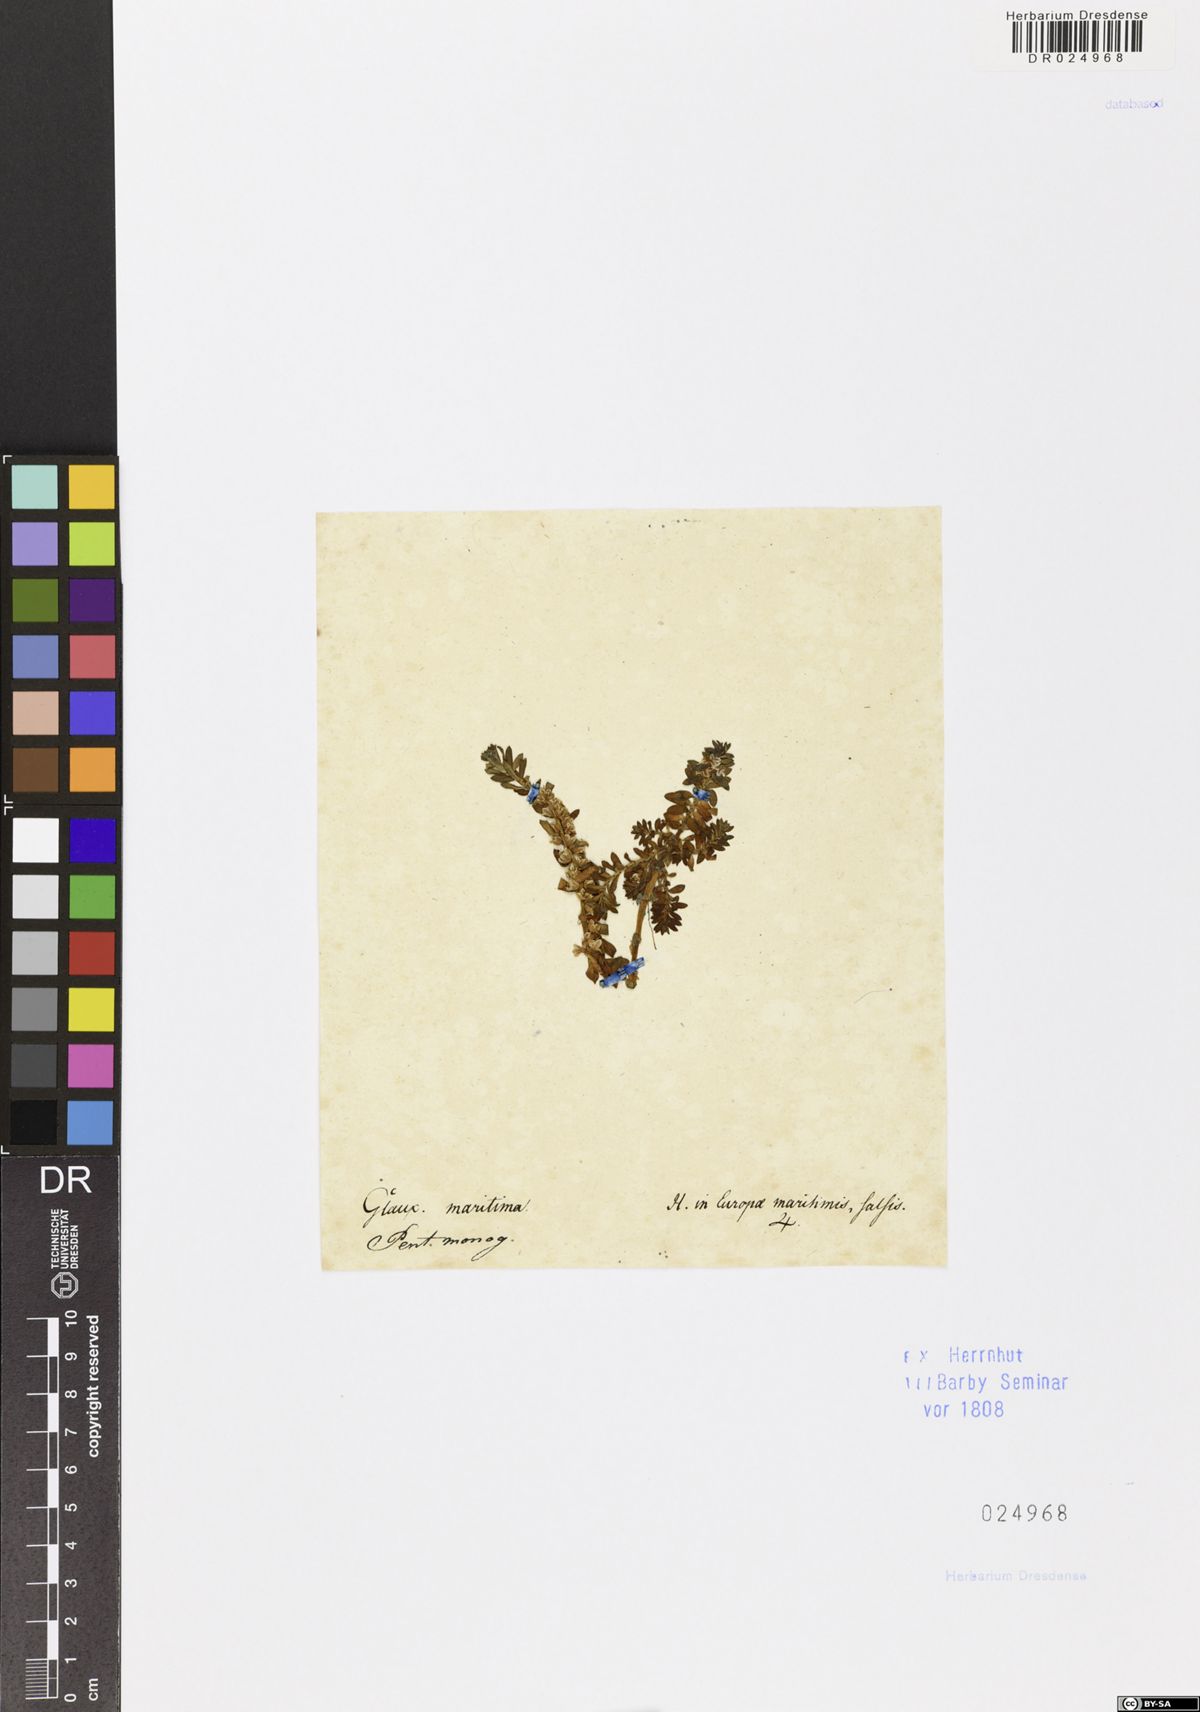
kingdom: Plantae
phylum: Tracheophyta
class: Magnoliopsida
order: Ericales
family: Primulaceae
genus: Lysimachia
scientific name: Lysimachia maritima
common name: Sea milkwort
